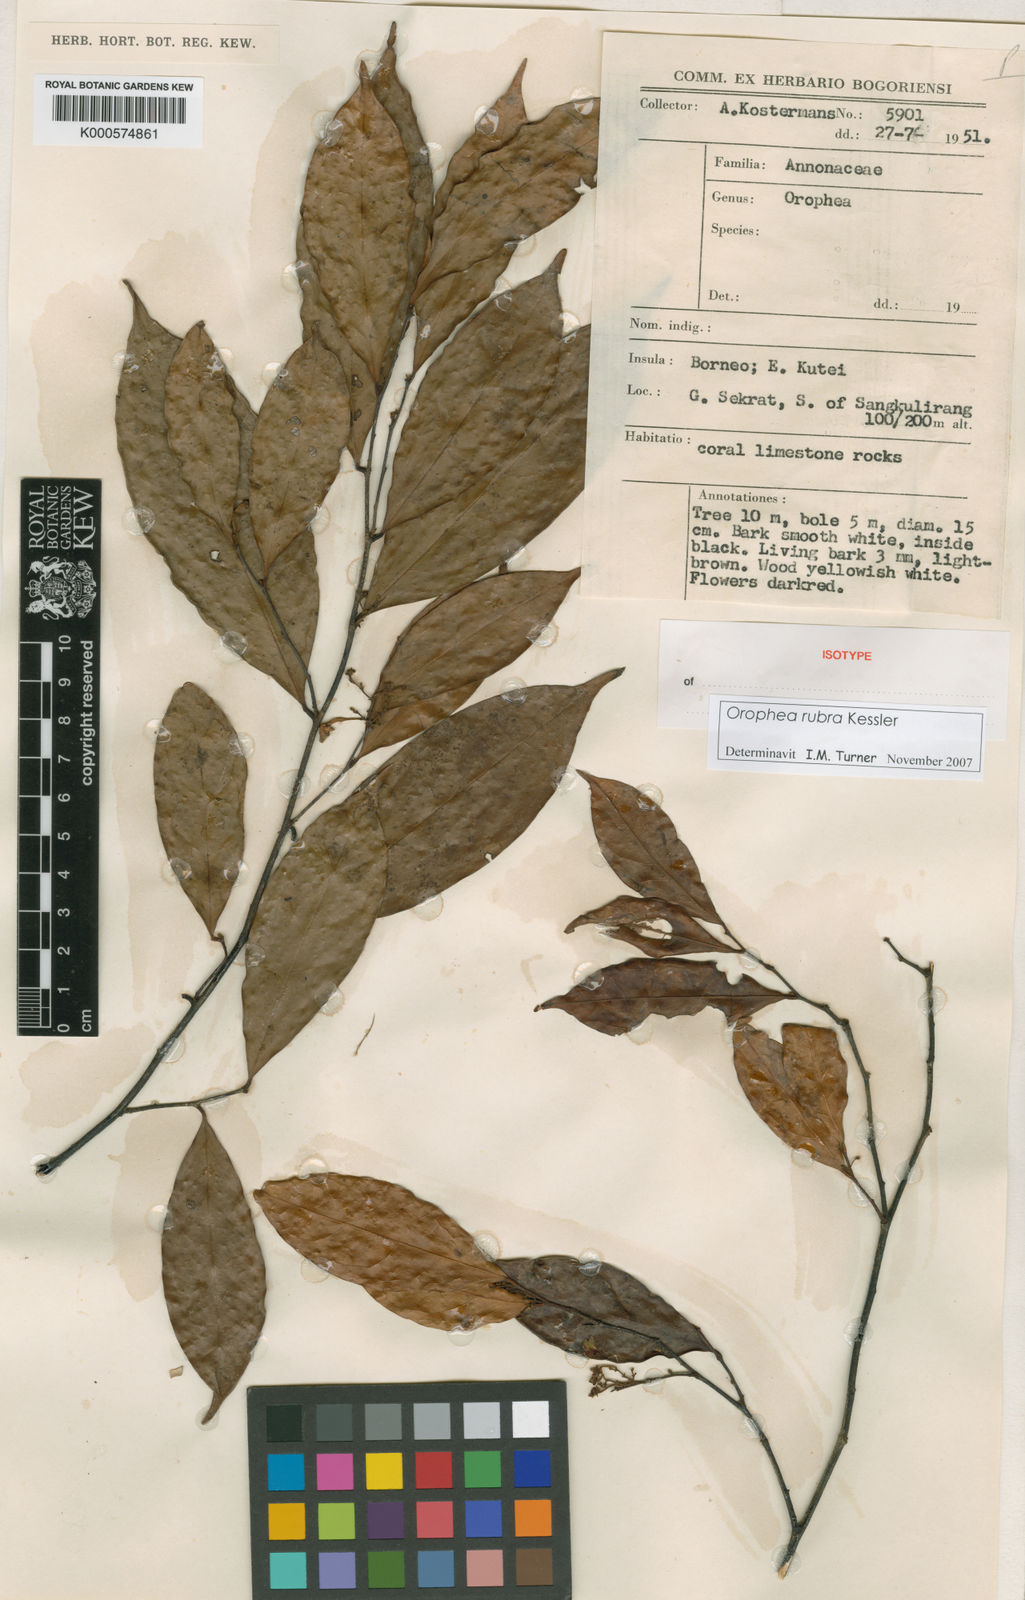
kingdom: Plantae
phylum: Tracheophyta
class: Magnoliopsida
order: Magnoliales
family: Annonaceae
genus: Orophea
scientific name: Orophea rubra
